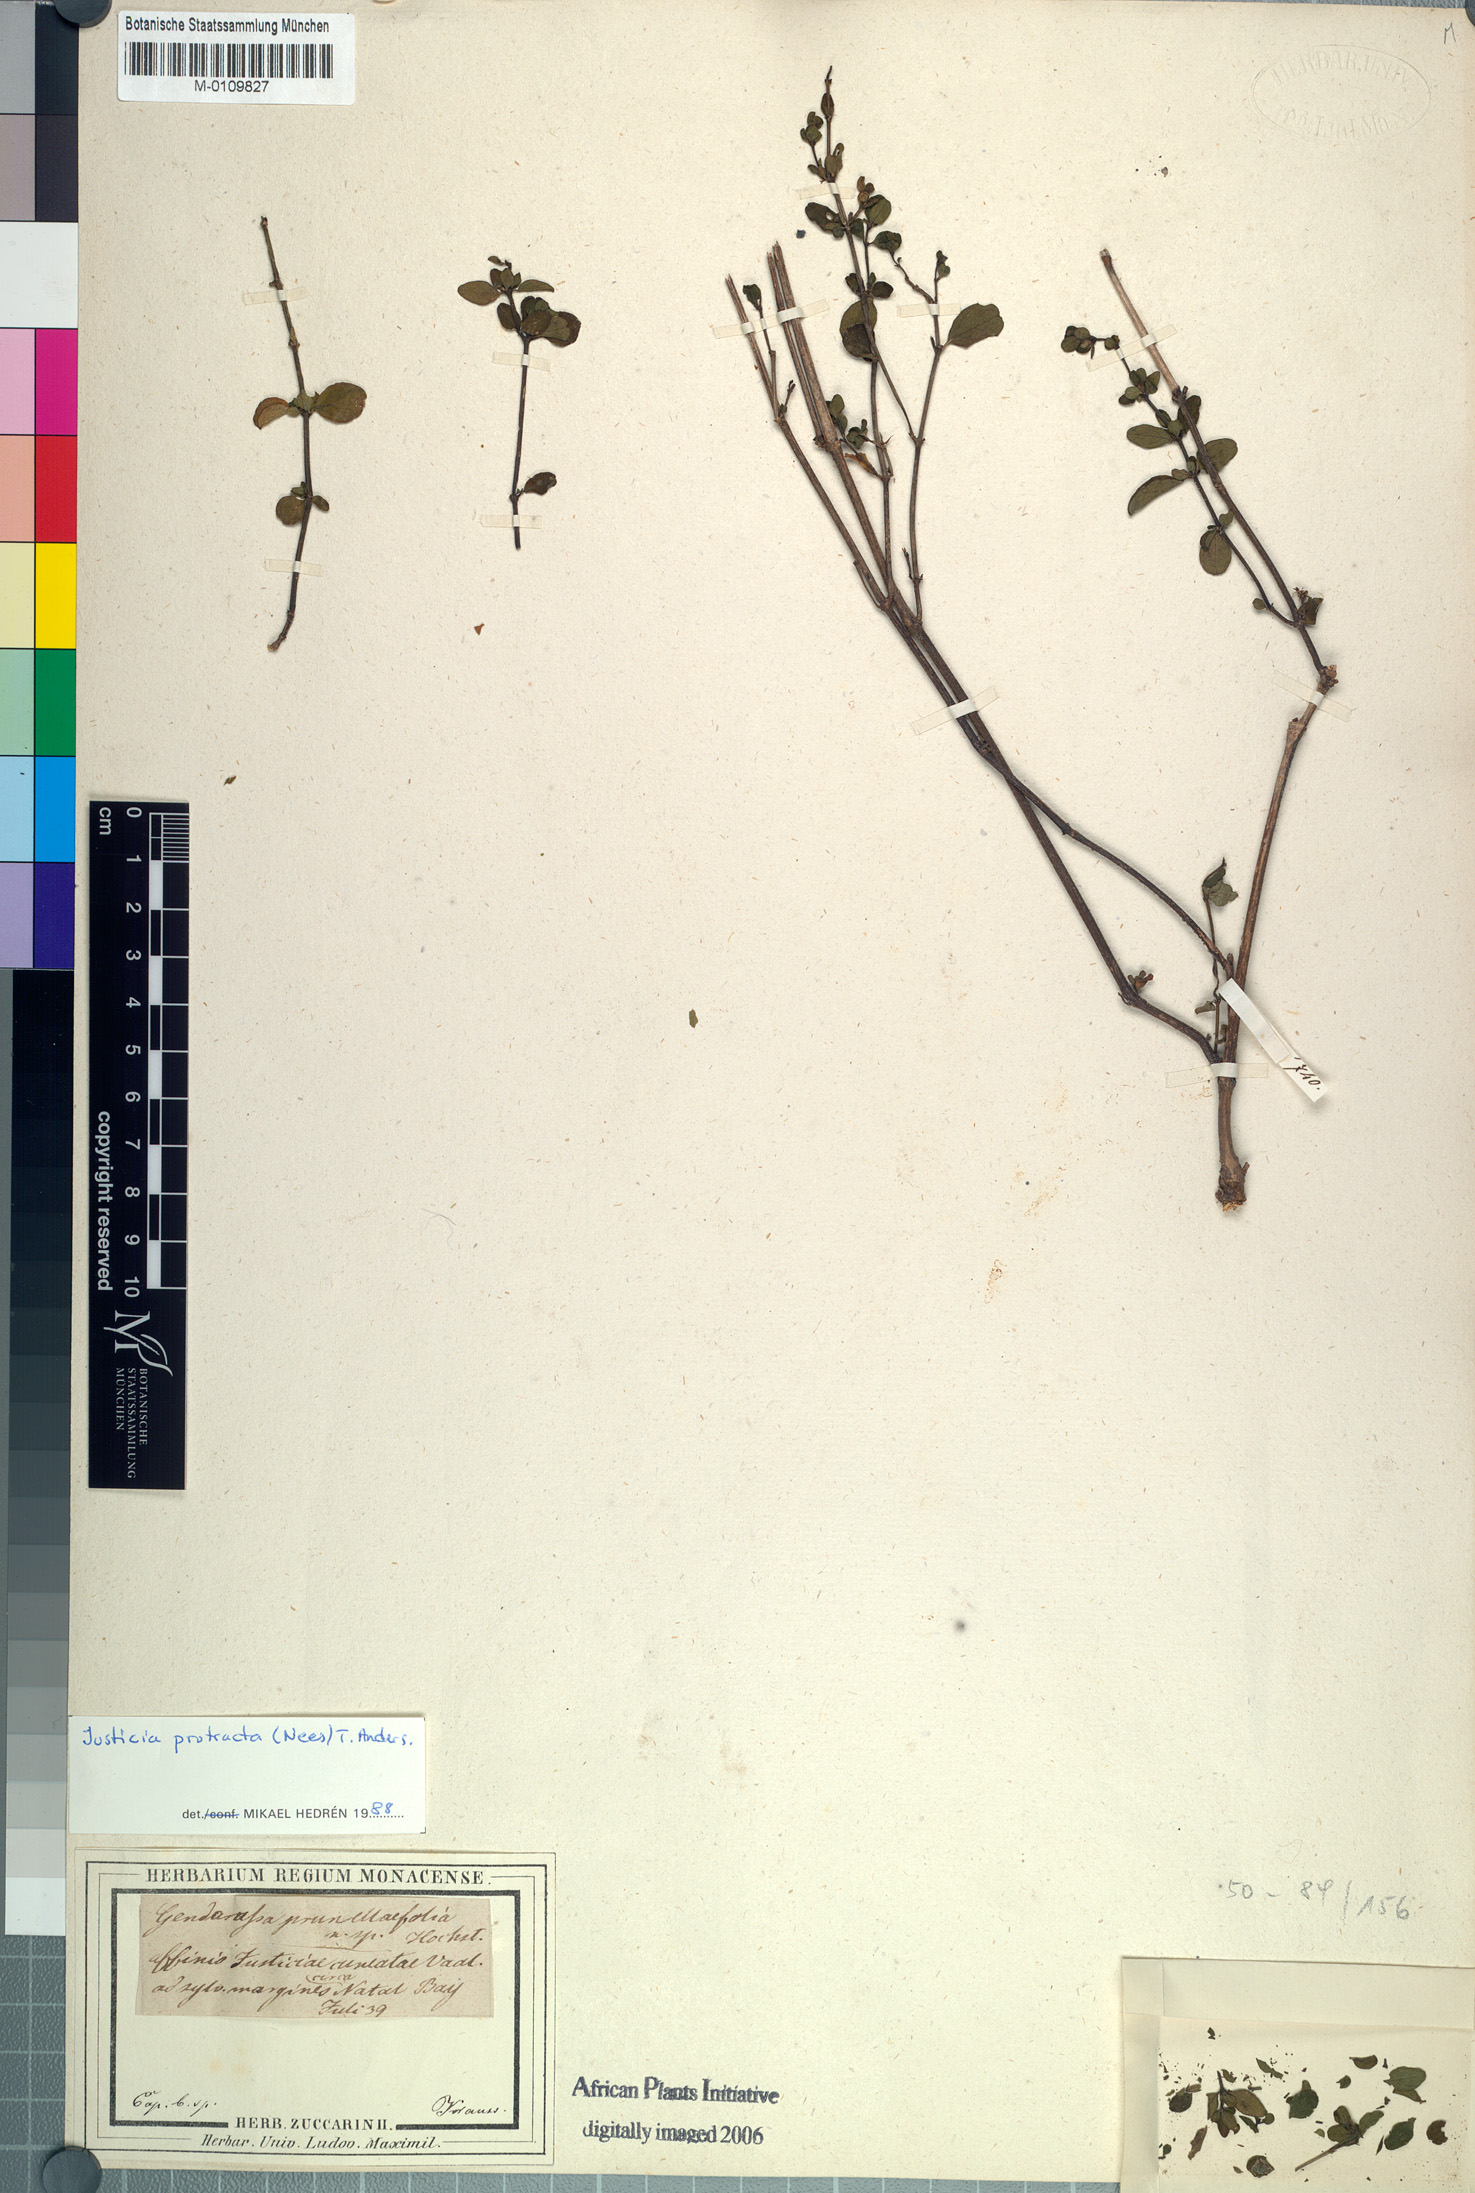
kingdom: Plantae
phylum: Tracheophyta
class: Magnoliopsida
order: Lamiales
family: Acanthaceae
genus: Justicia
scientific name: Justicia protracta
